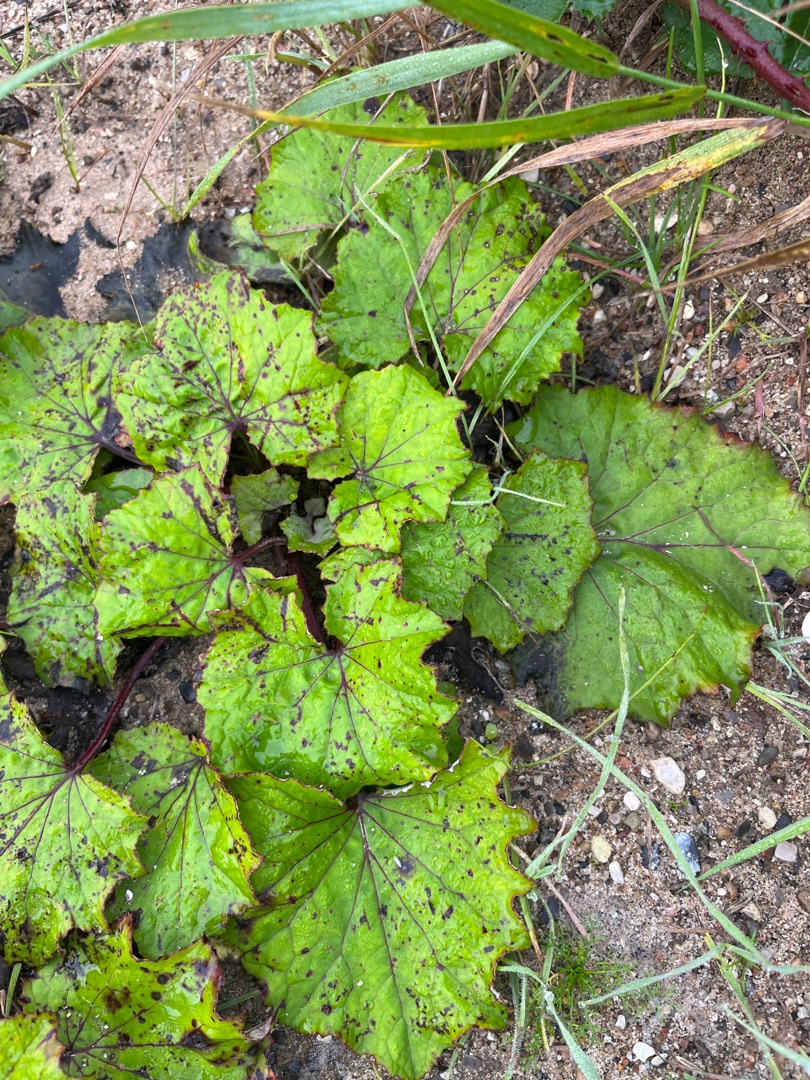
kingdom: Plantae
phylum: Tracheophyta
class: Magnoliopsida
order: Asterales
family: Asteraceae
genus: Tussilago
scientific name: Tussilago farfara
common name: Følfod
